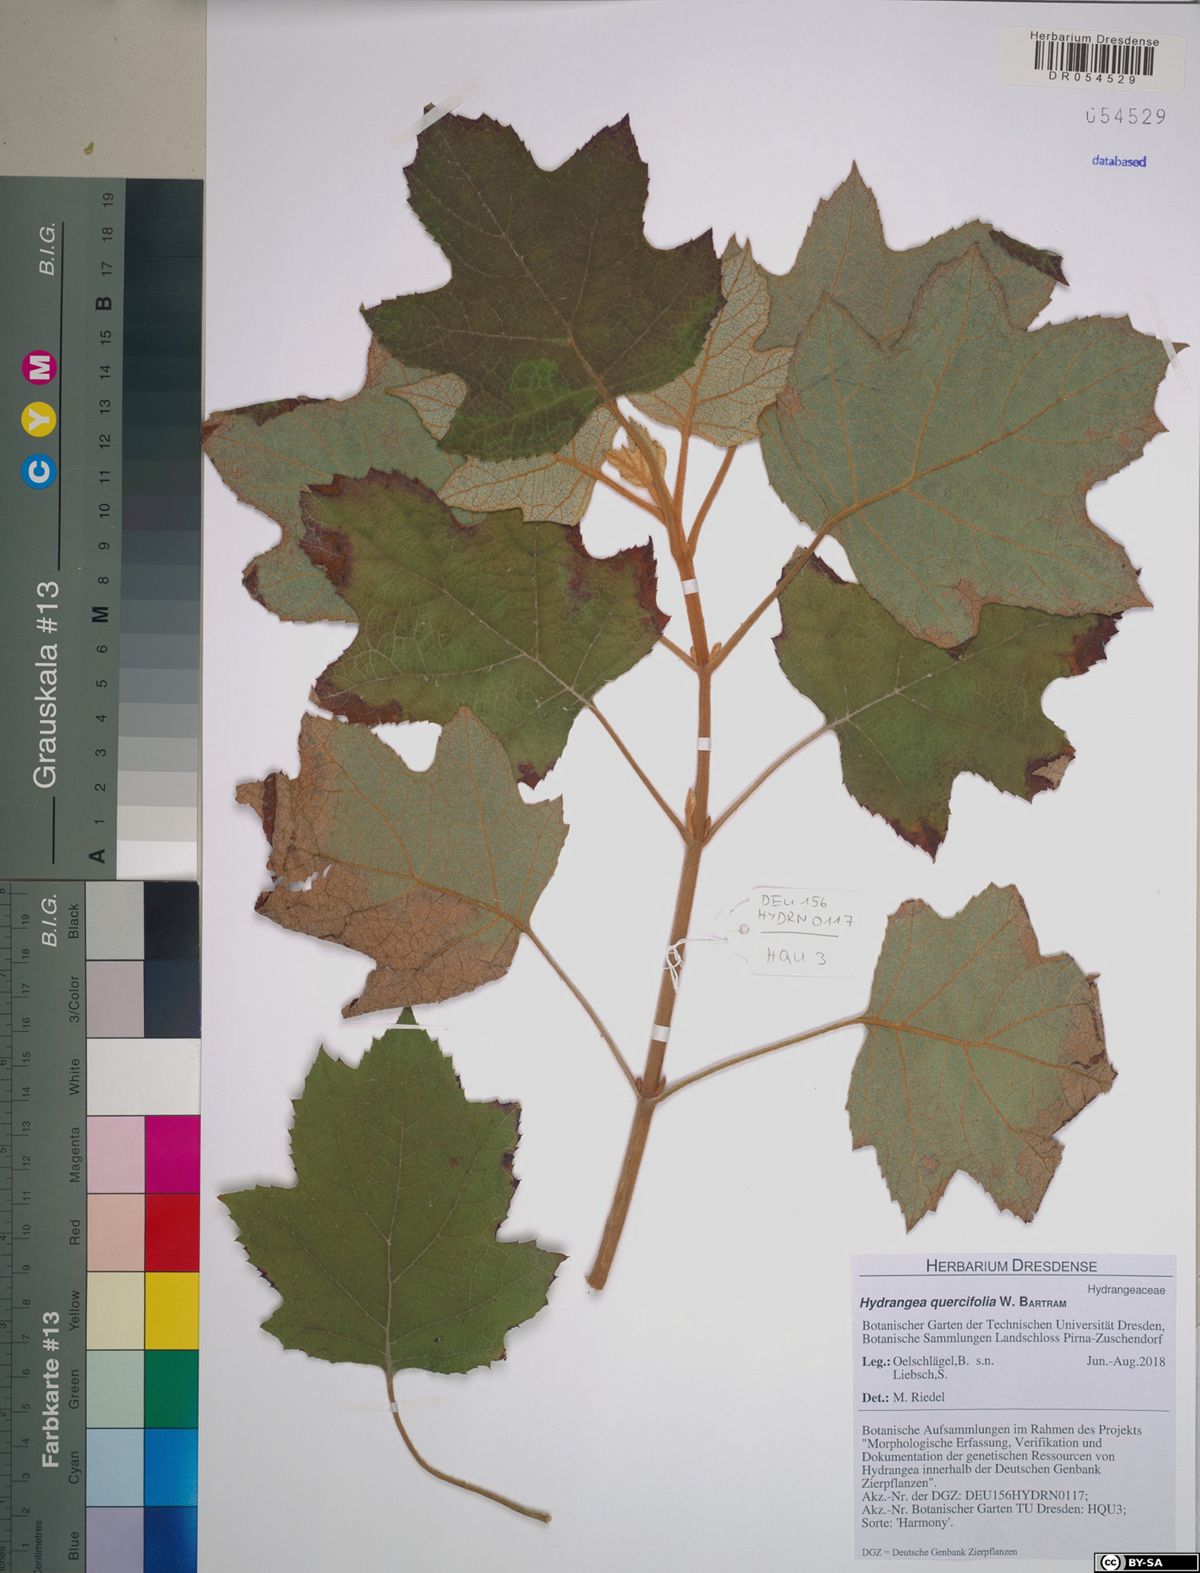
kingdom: Plantae
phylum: Tracheophyta
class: Magnoliopsida
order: Cornales
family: Hydrangeaceae
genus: Hydrangea
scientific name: Hydrangea quercifolia
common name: Oak-leaf hydrangea
